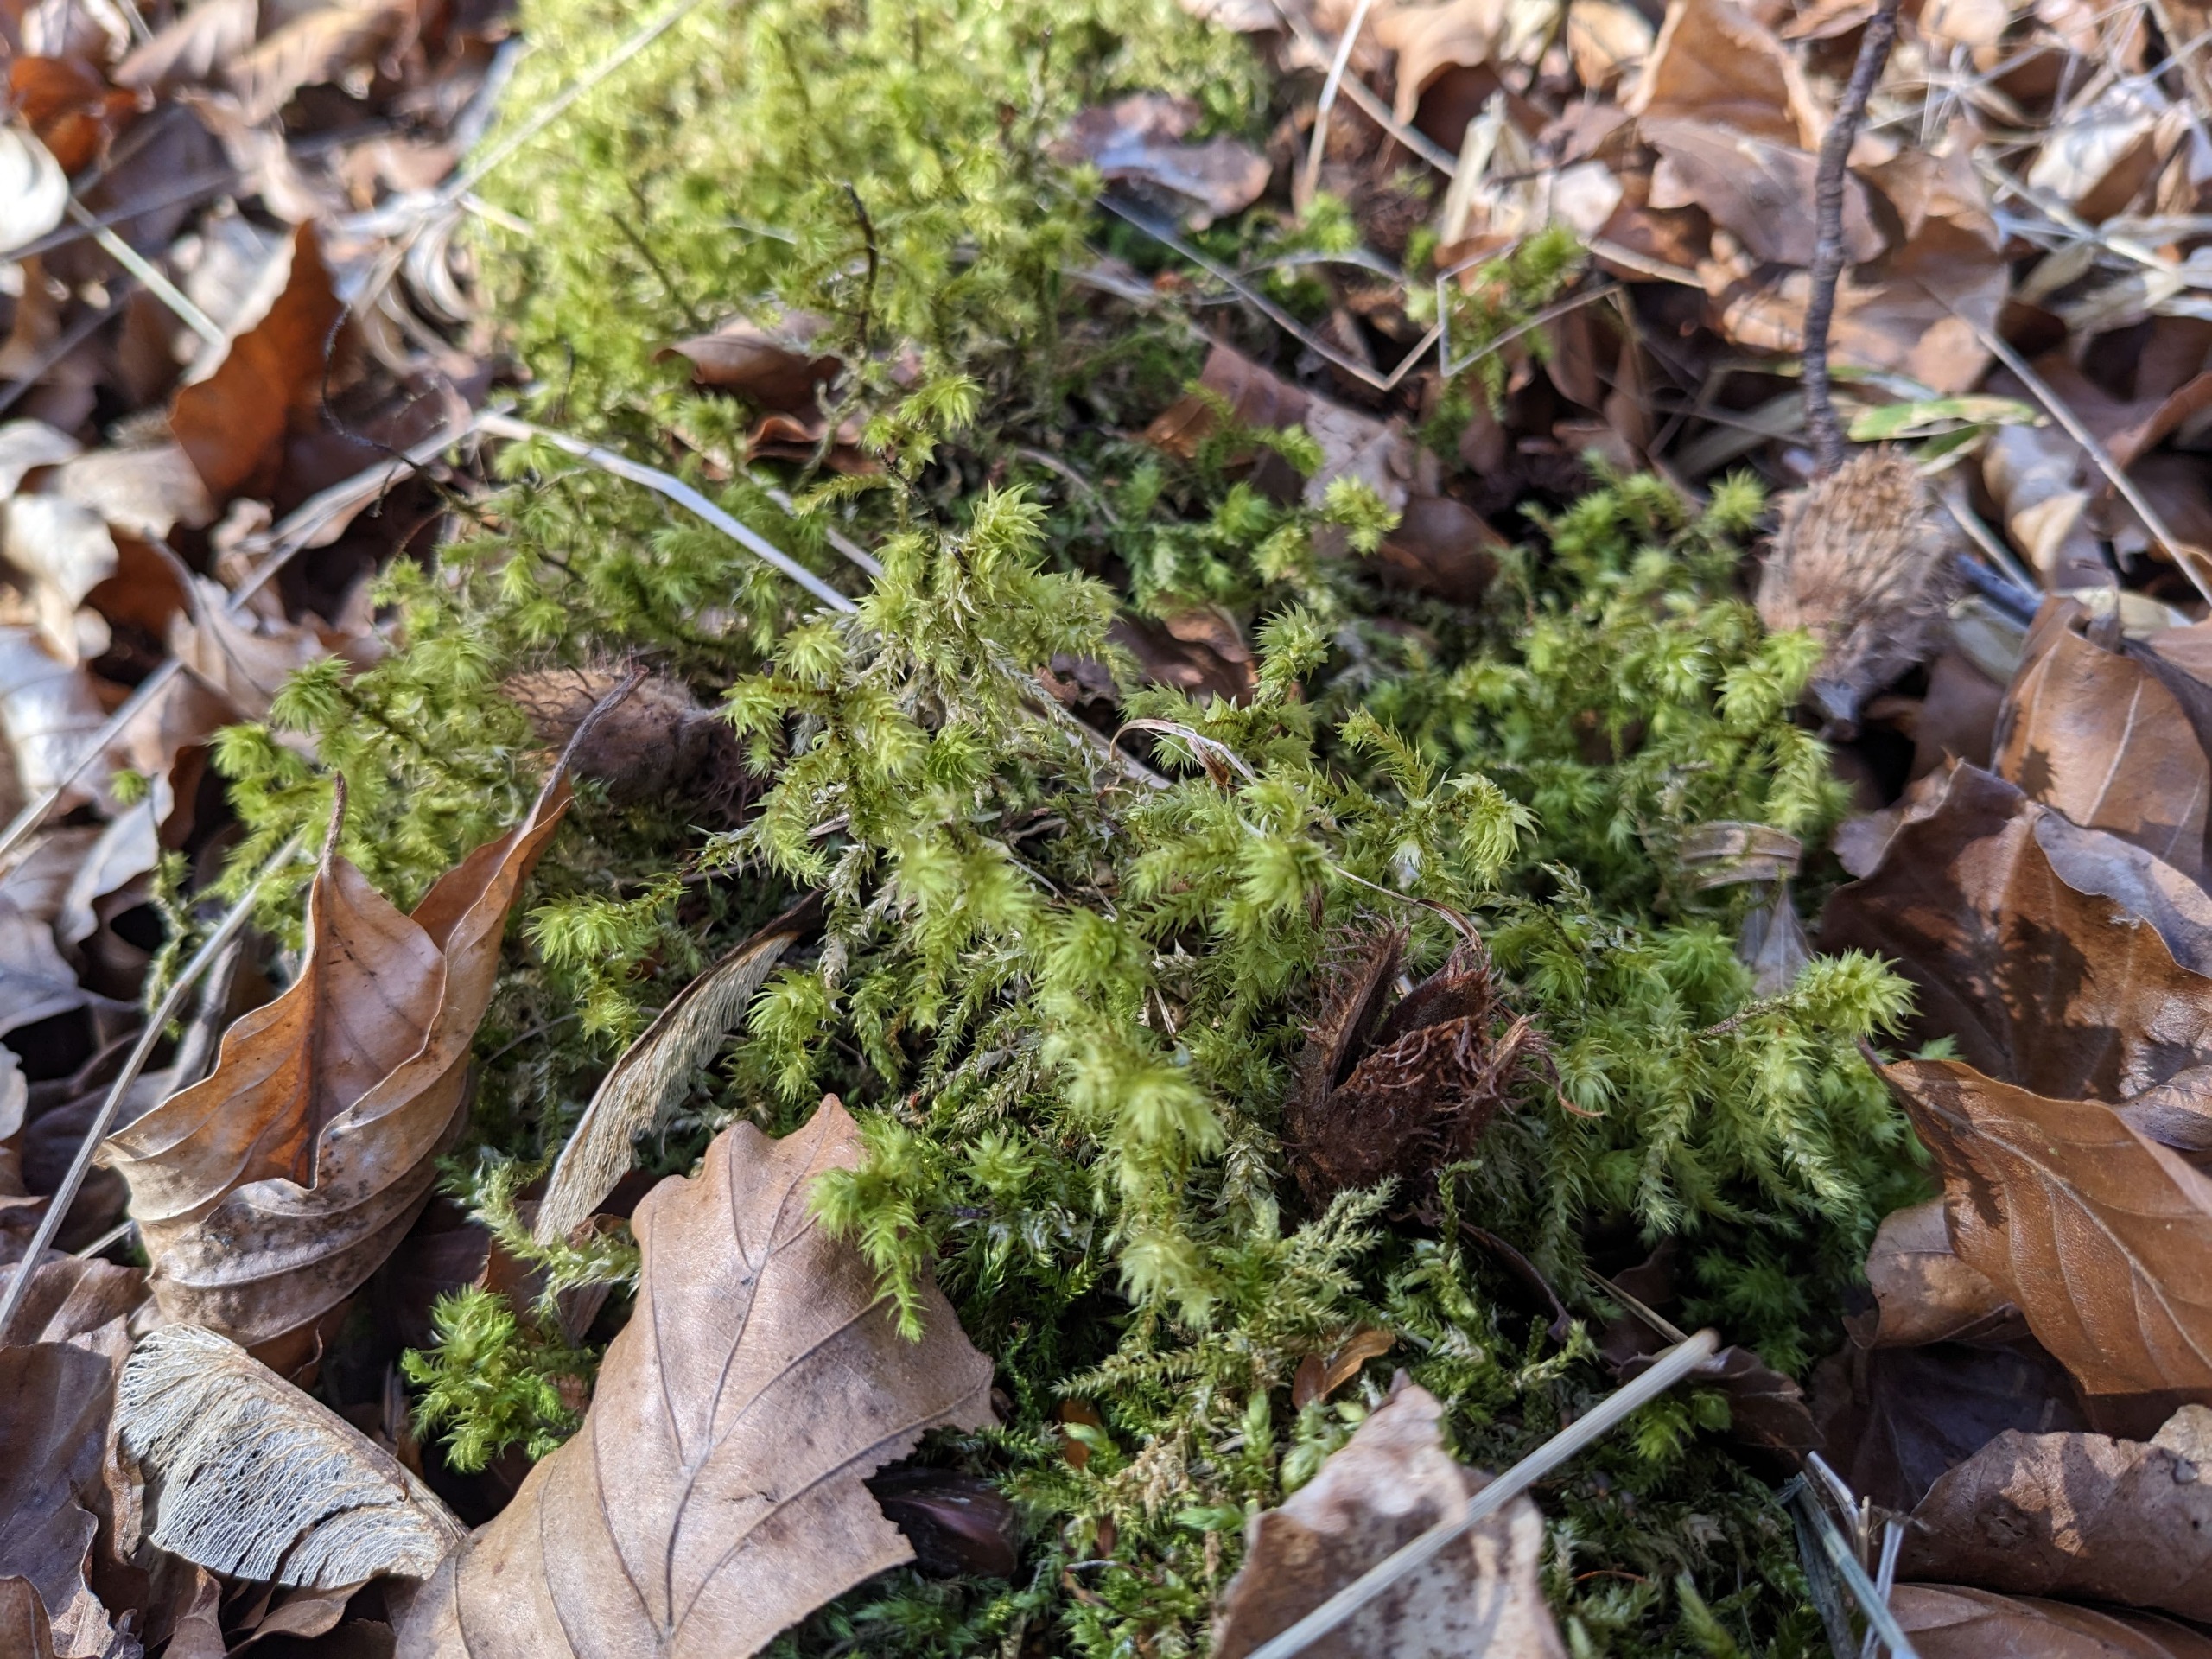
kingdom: Plantae
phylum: Bryophyta
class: Bryopsida
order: Hypnales
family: Hylocomiaceae
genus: Hylocomiadelphus
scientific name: Hylocomiadelphus triquetrus
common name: Stor kransemos
